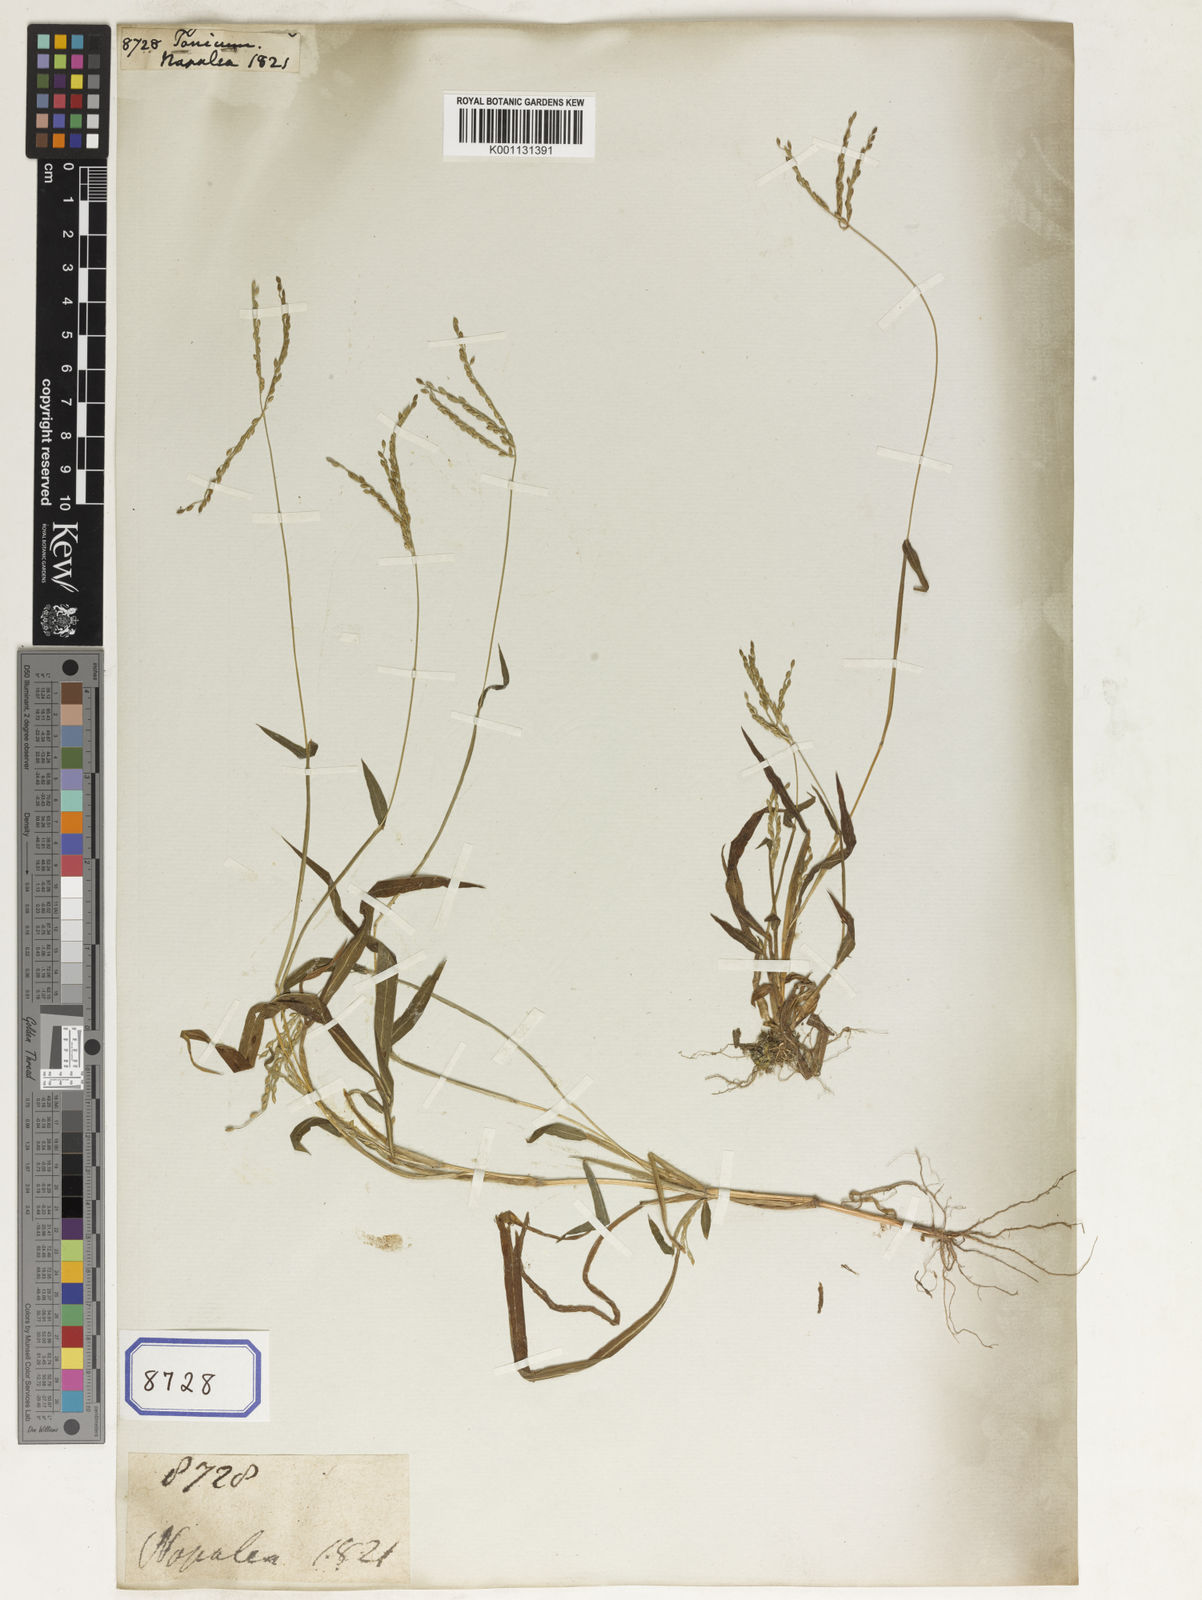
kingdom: Plantae
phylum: Tracheophyta
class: Liliopsida
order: Poales
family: Poaceae
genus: Panicum
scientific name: Panicum
